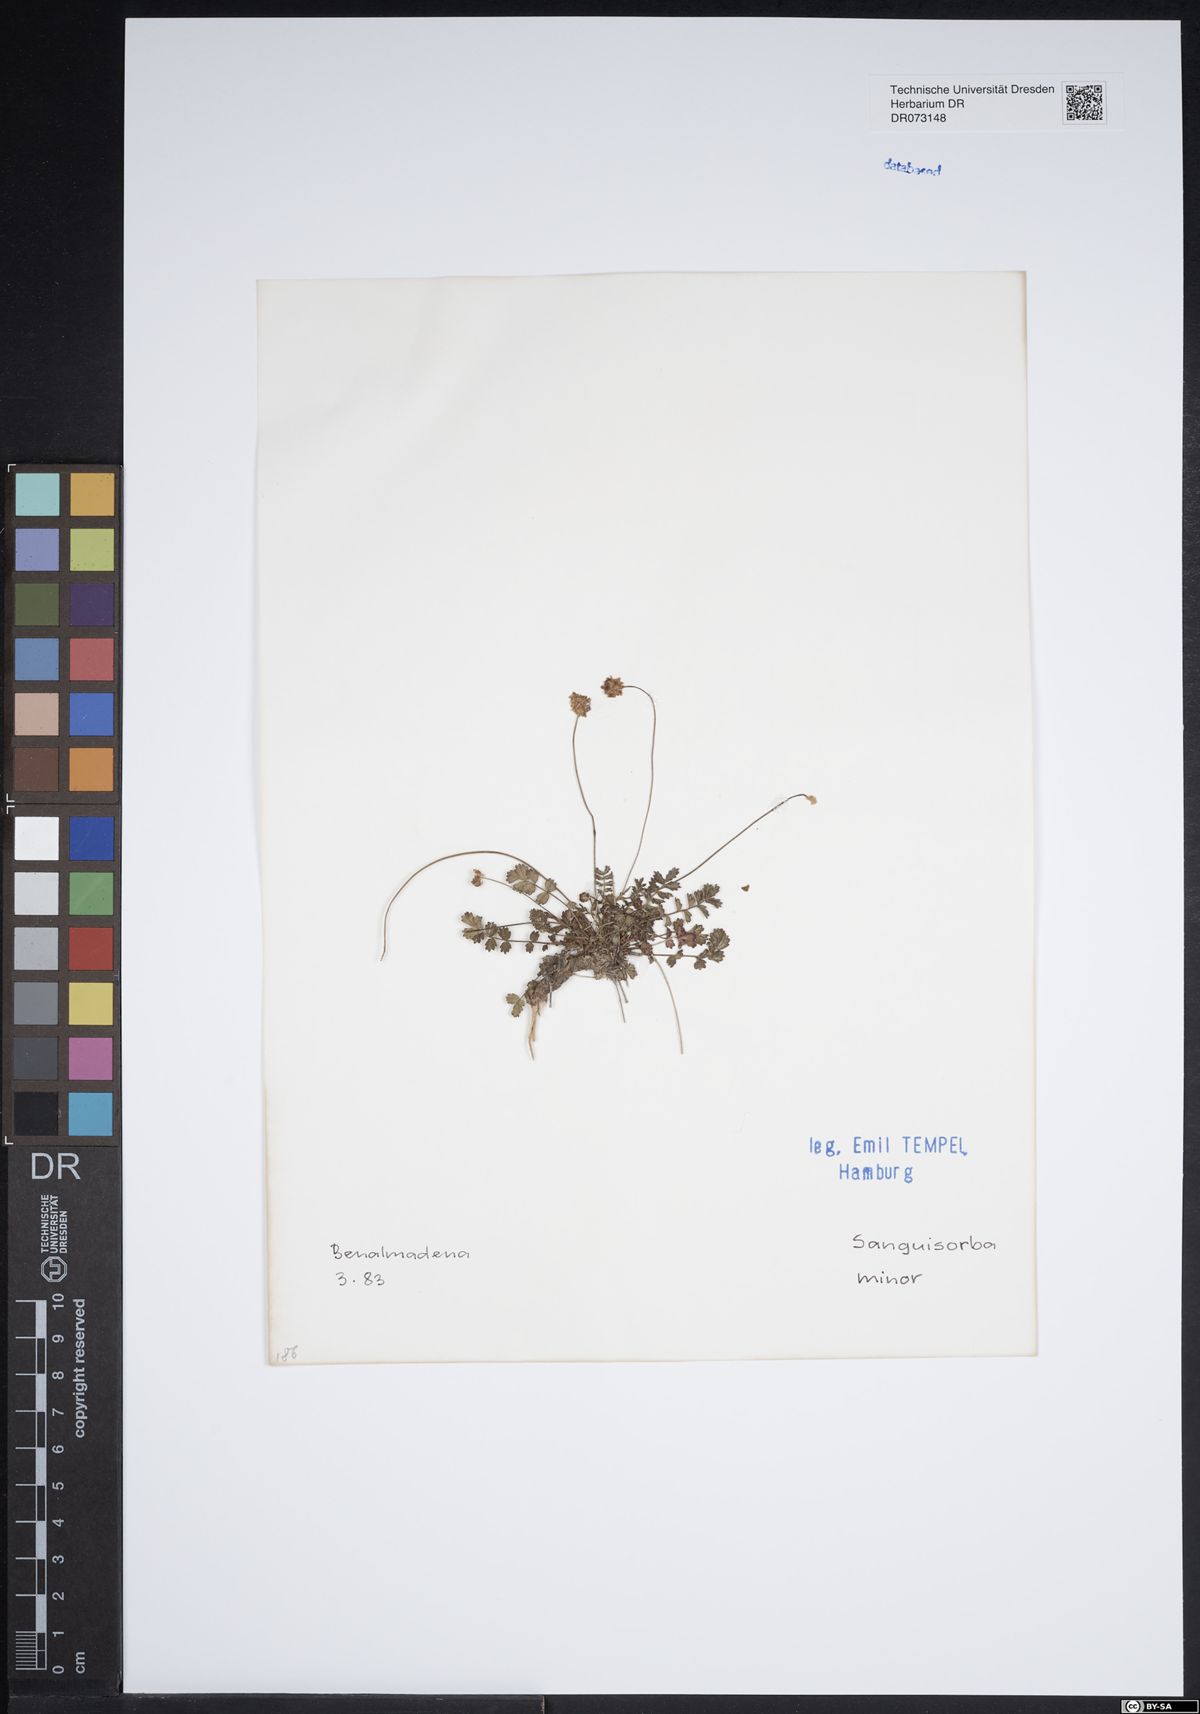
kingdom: Plantae
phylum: Tracheophyta
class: Magnoliopsida
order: Rosales
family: Rosaceae
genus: Poterium
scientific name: Poterium sanguisorba
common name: Salad burnet
